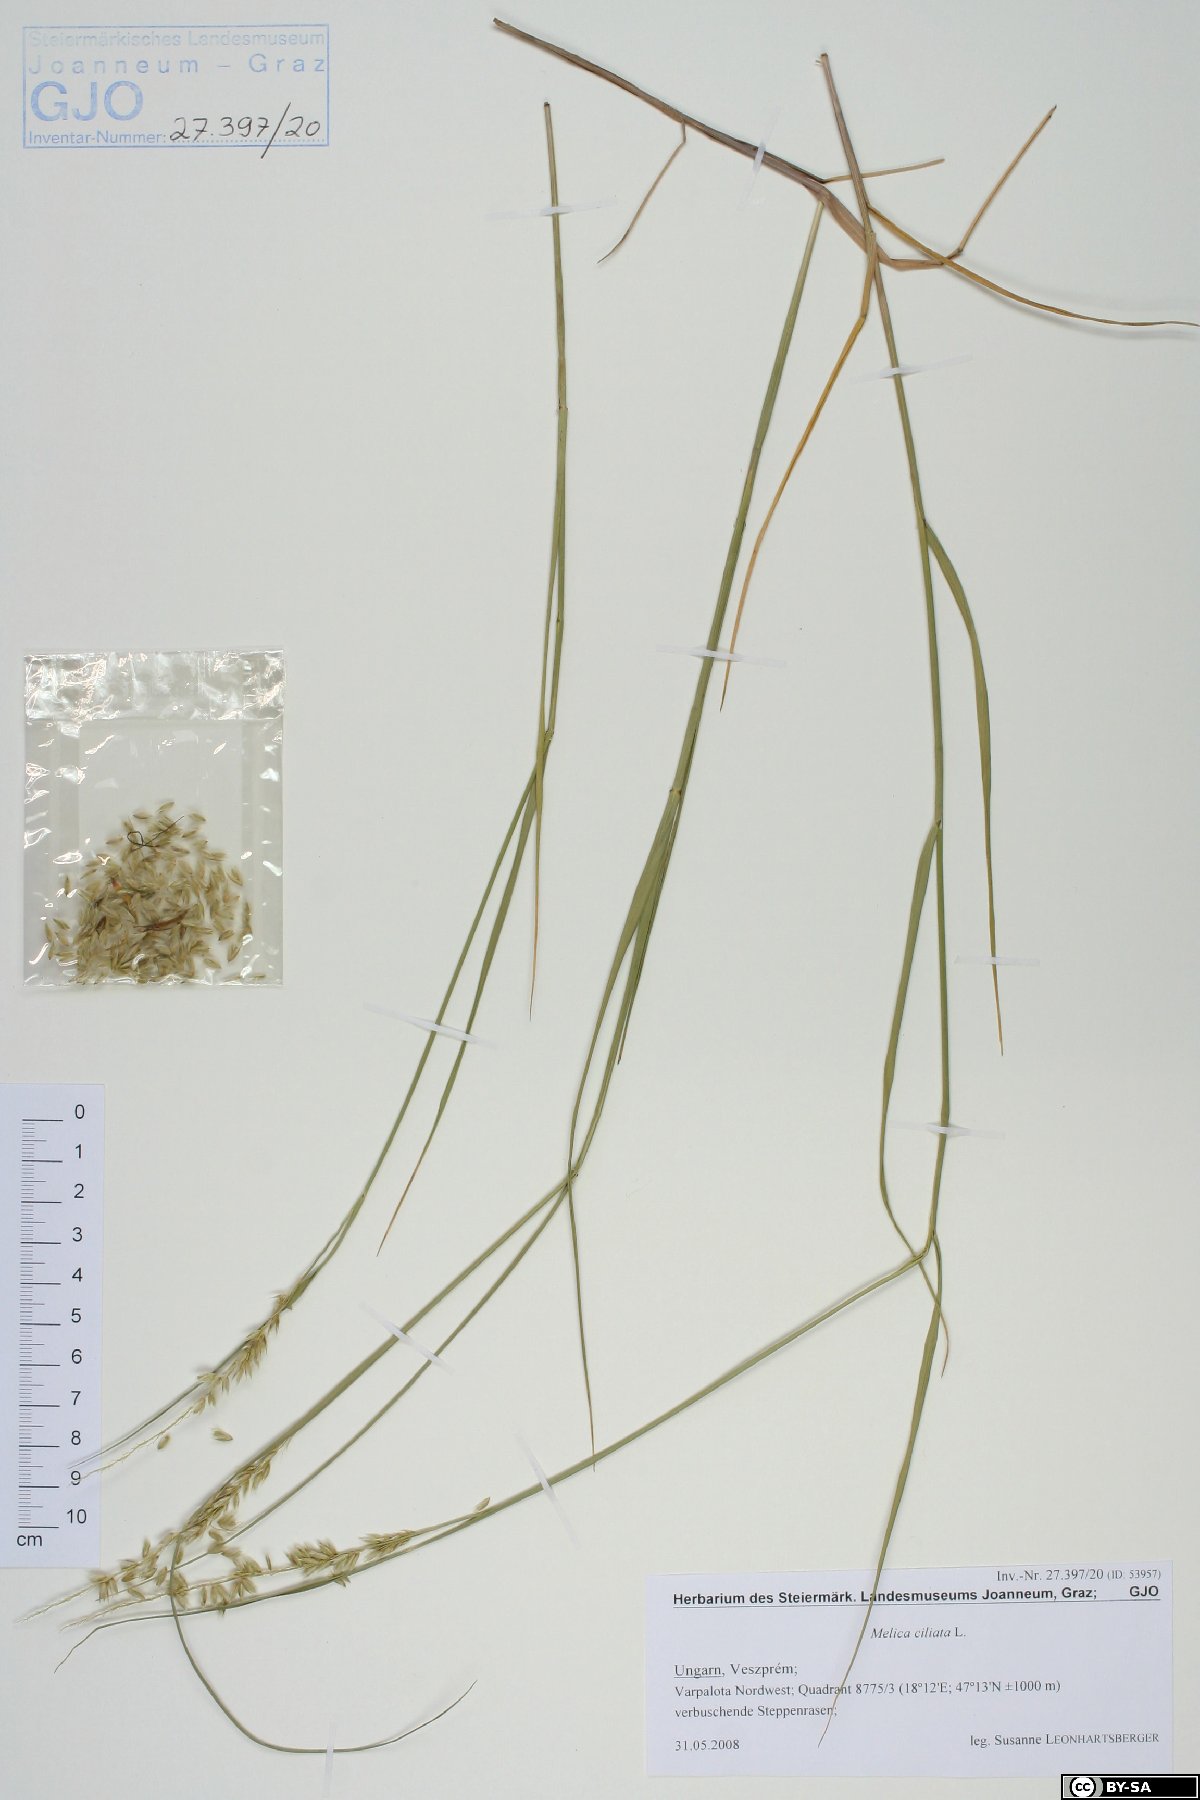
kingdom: Plantae
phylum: Tracheophyta
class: Liliopsida
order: Poales
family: Poaceae
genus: Melica
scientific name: Melica ciliata
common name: Hairy melicgrass
